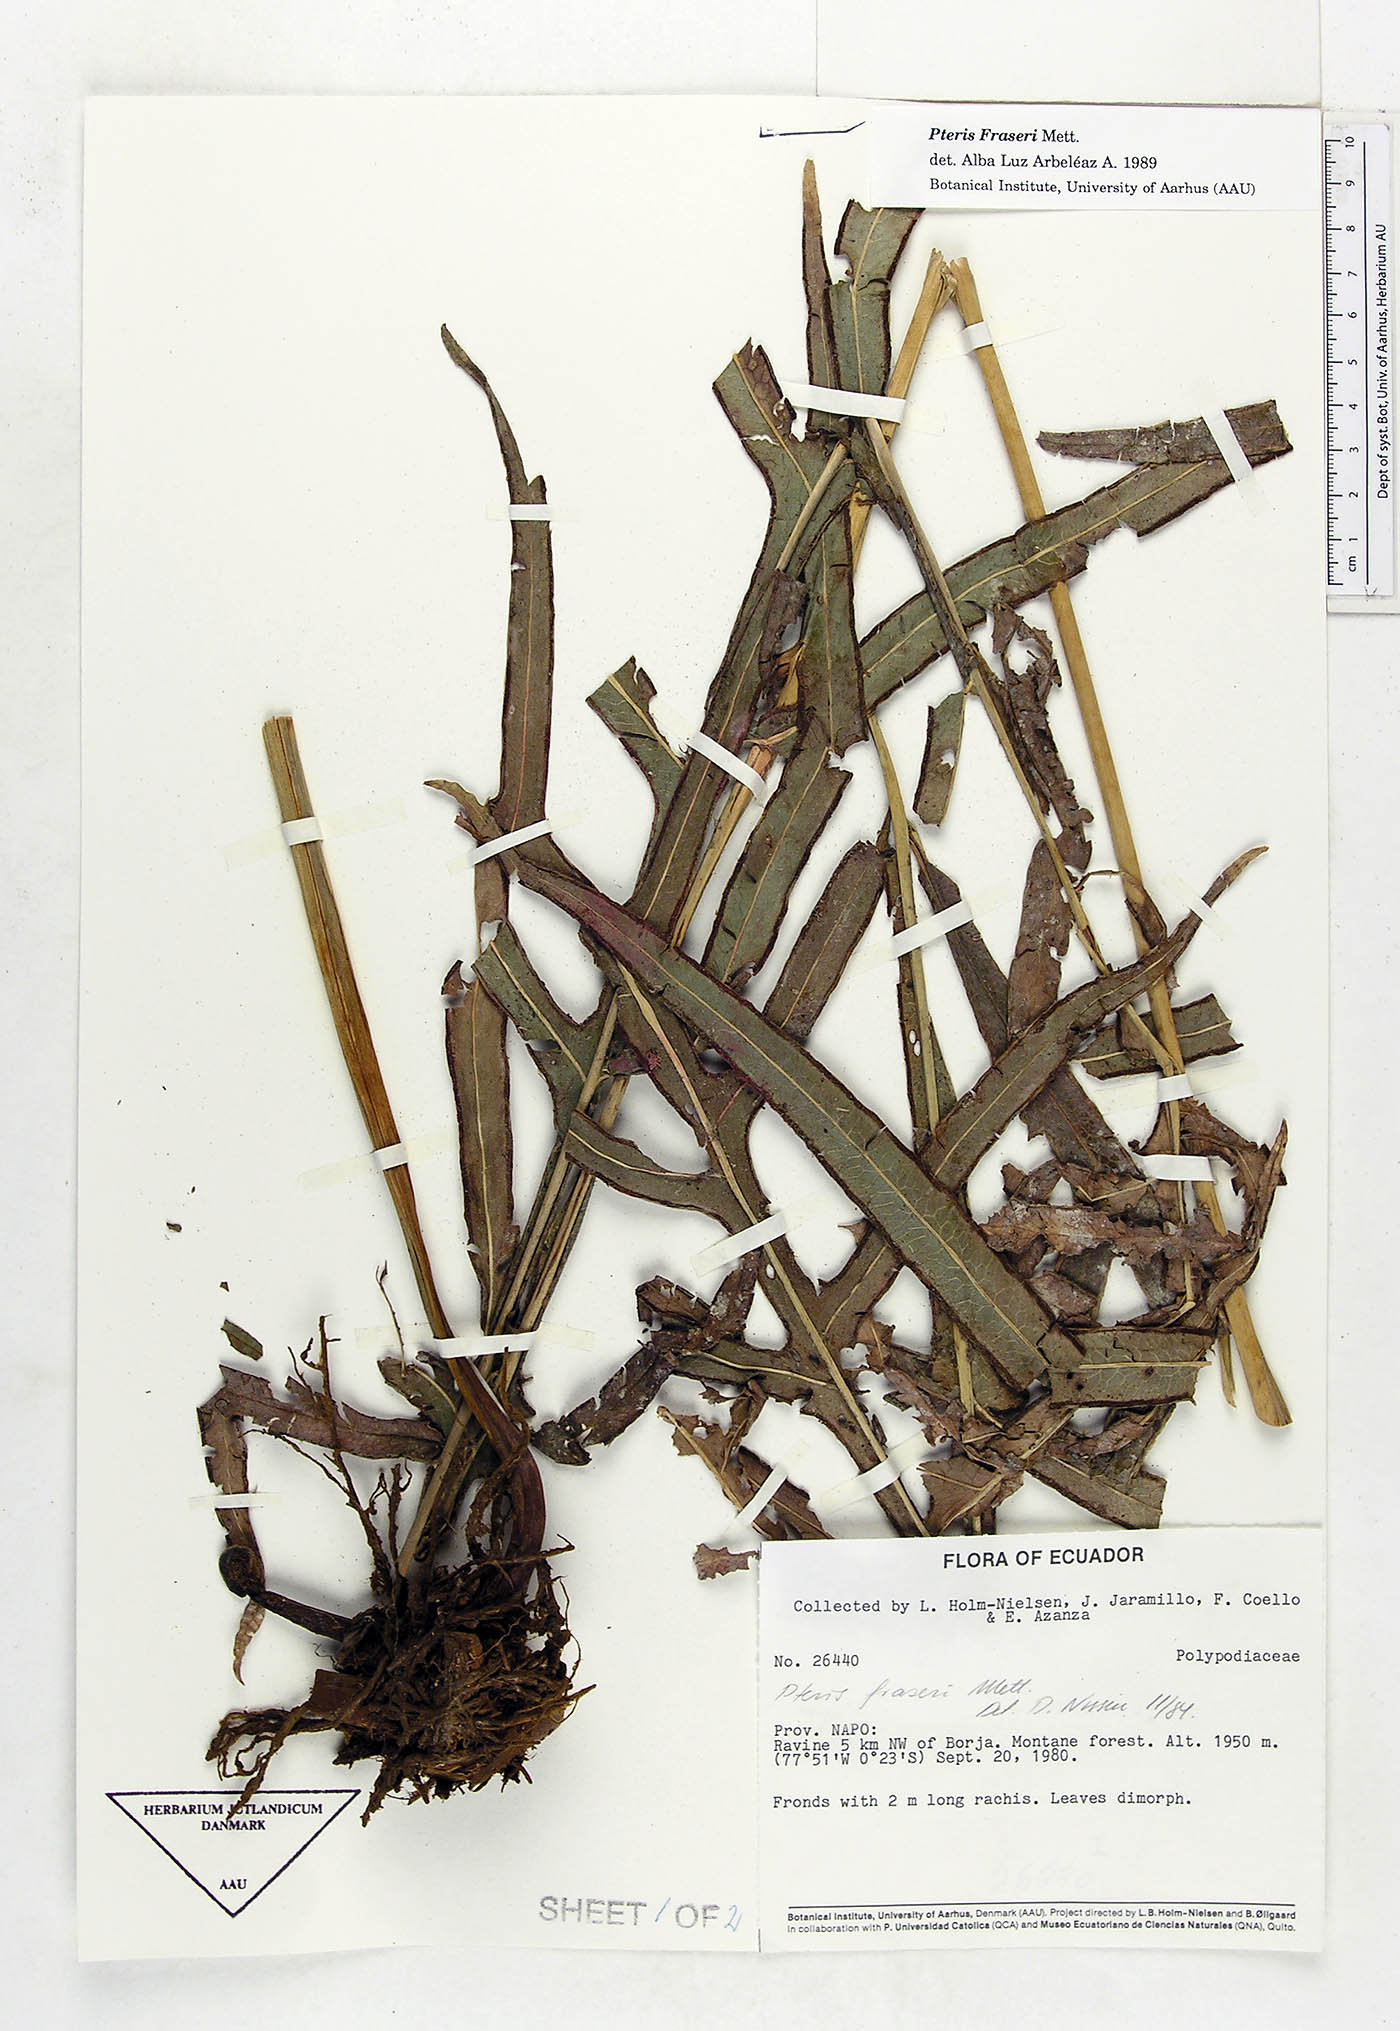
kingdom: Plantae
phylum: Tracheophyta
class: Polypodiopsida
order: Polypodiales
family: Pteridaceae
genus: Pteris
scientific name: Pteris fraseri
